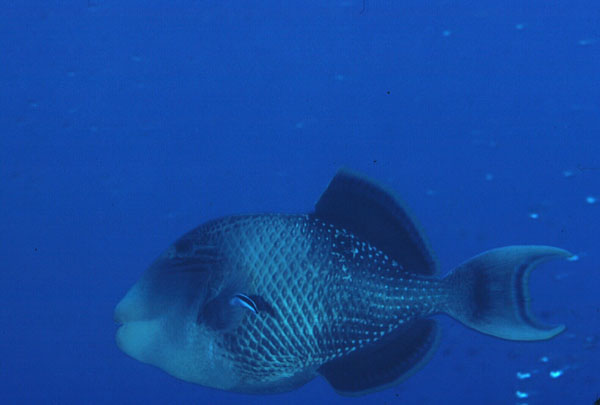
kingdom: Animalia
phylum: Chordata
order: Tetraodontiformes
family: Balistidae
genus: Pseudobalistes
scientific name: Pseudobalistes flavimarginatus
